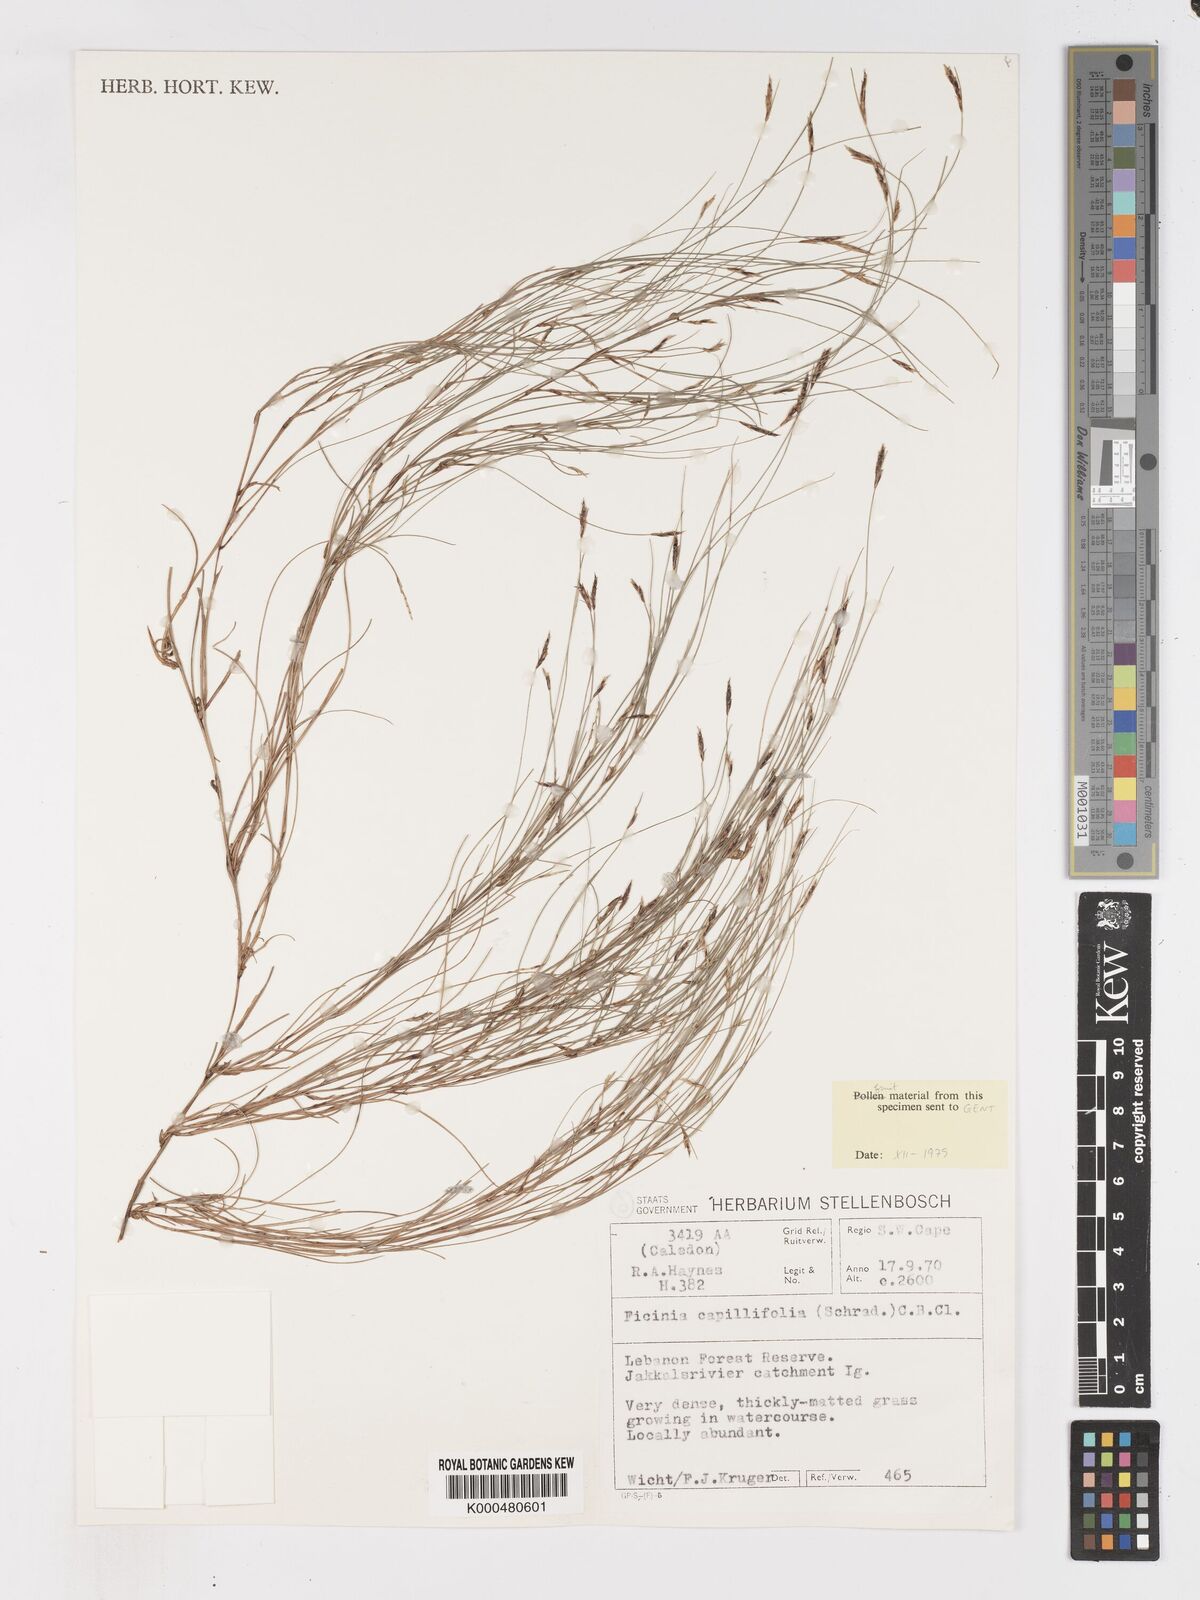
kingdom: Plantae
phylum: Tracheophyta
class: Liliopsida
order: Poales
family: Cyperaceae
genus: Ficinia
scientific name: Ficinia capillifolia
